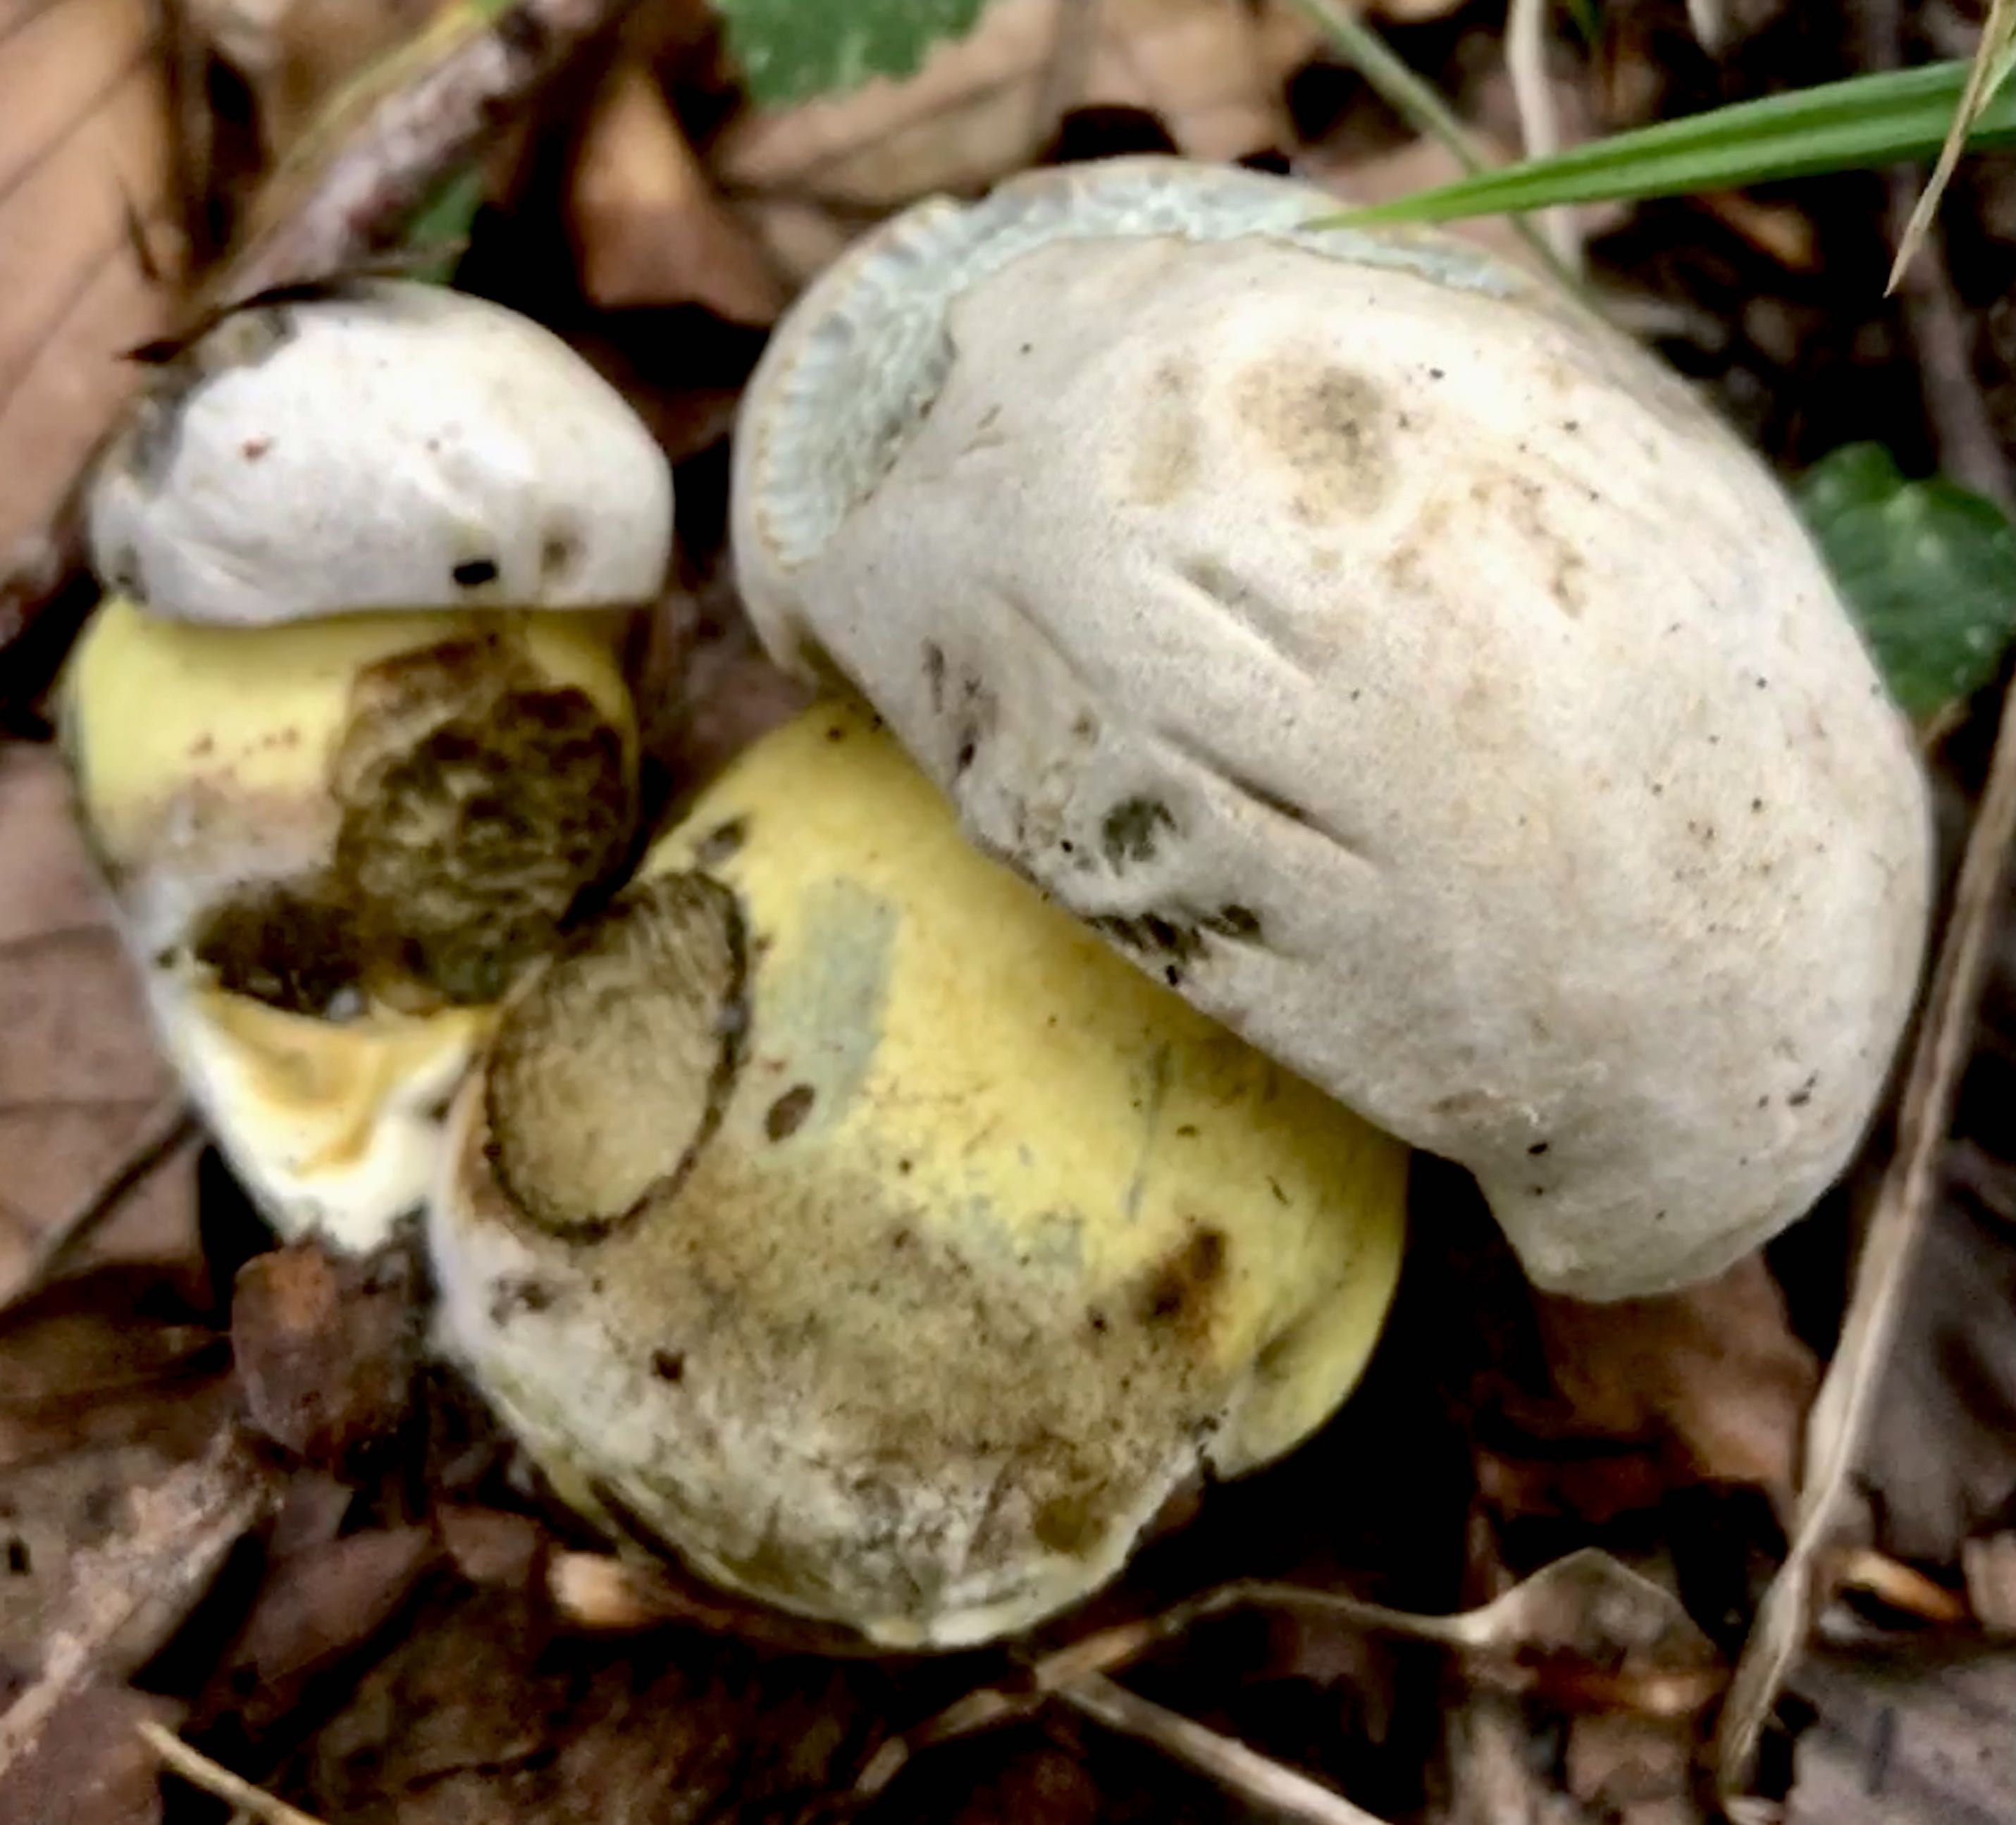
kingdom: Fungi
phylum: Basidiomycota
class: Agaricomycetes
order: Boletales
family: Boletaceae
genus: Caloboletus
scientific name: Caloboletus radicans
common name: rod-rørhat
